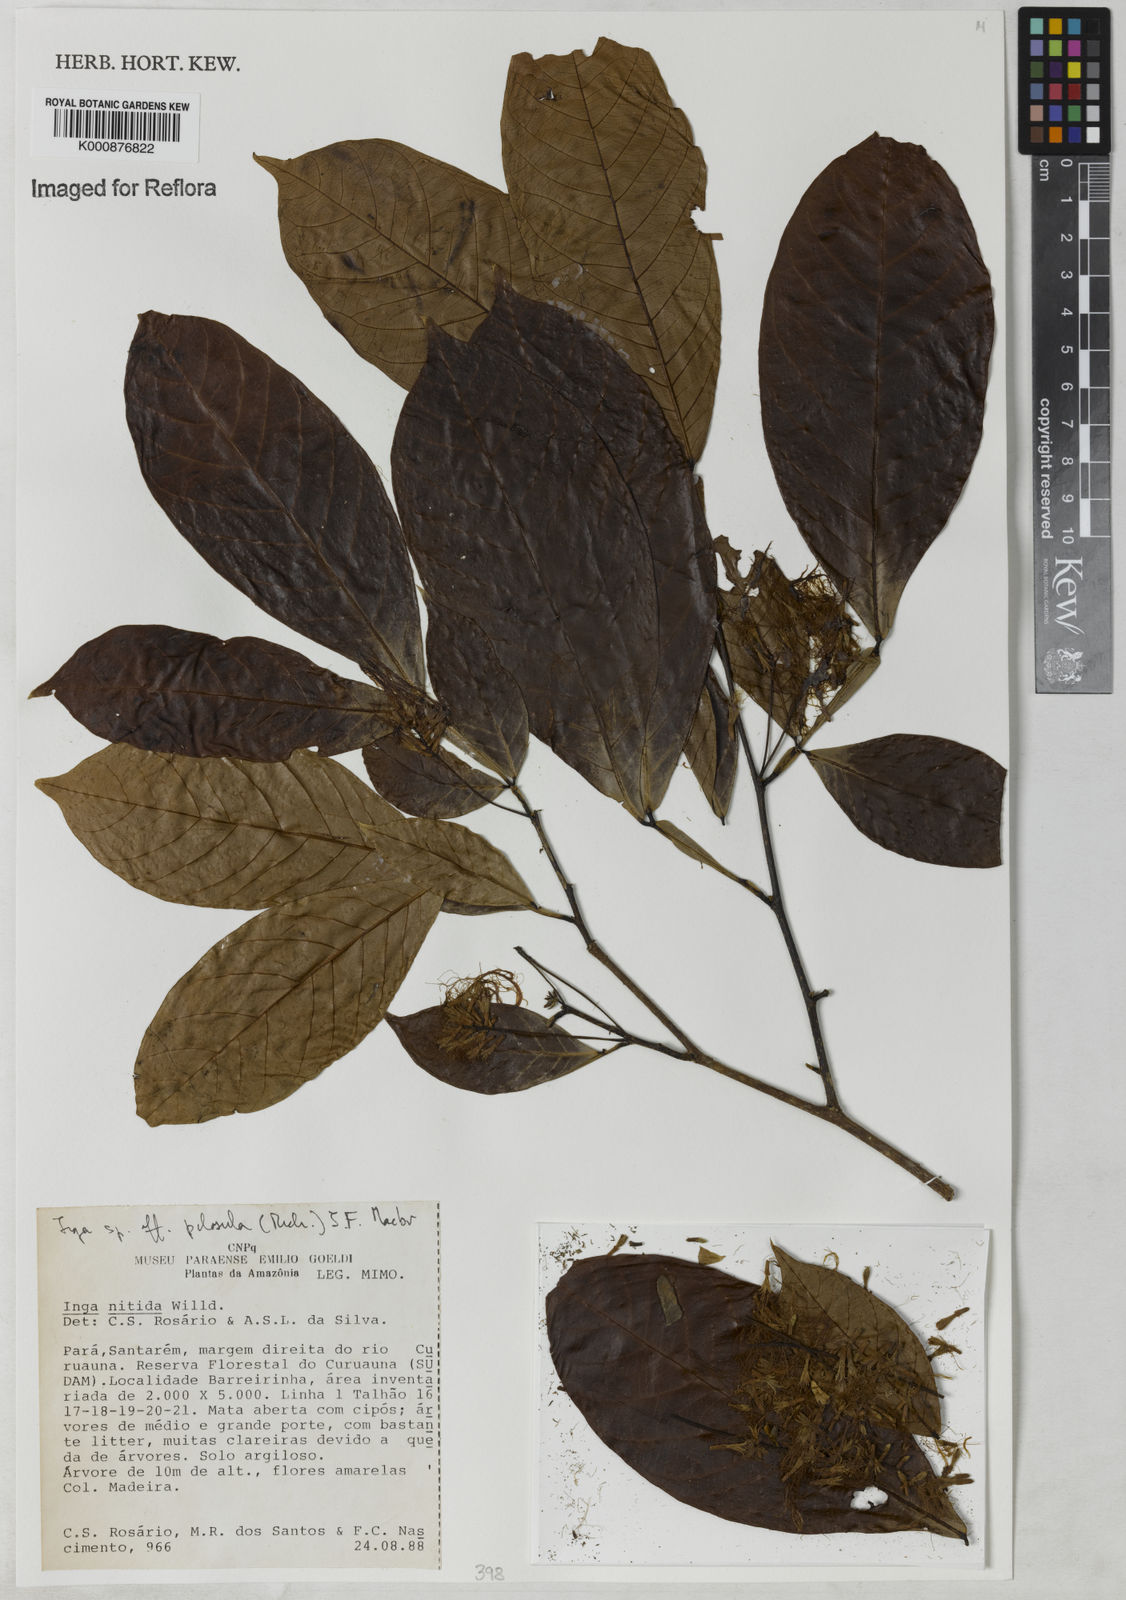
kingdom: Plantae
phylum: Tracheophyta
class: Magnoliopsida
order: Fabales
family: Fabaceae
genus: Inga
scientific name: Inga pilosula
